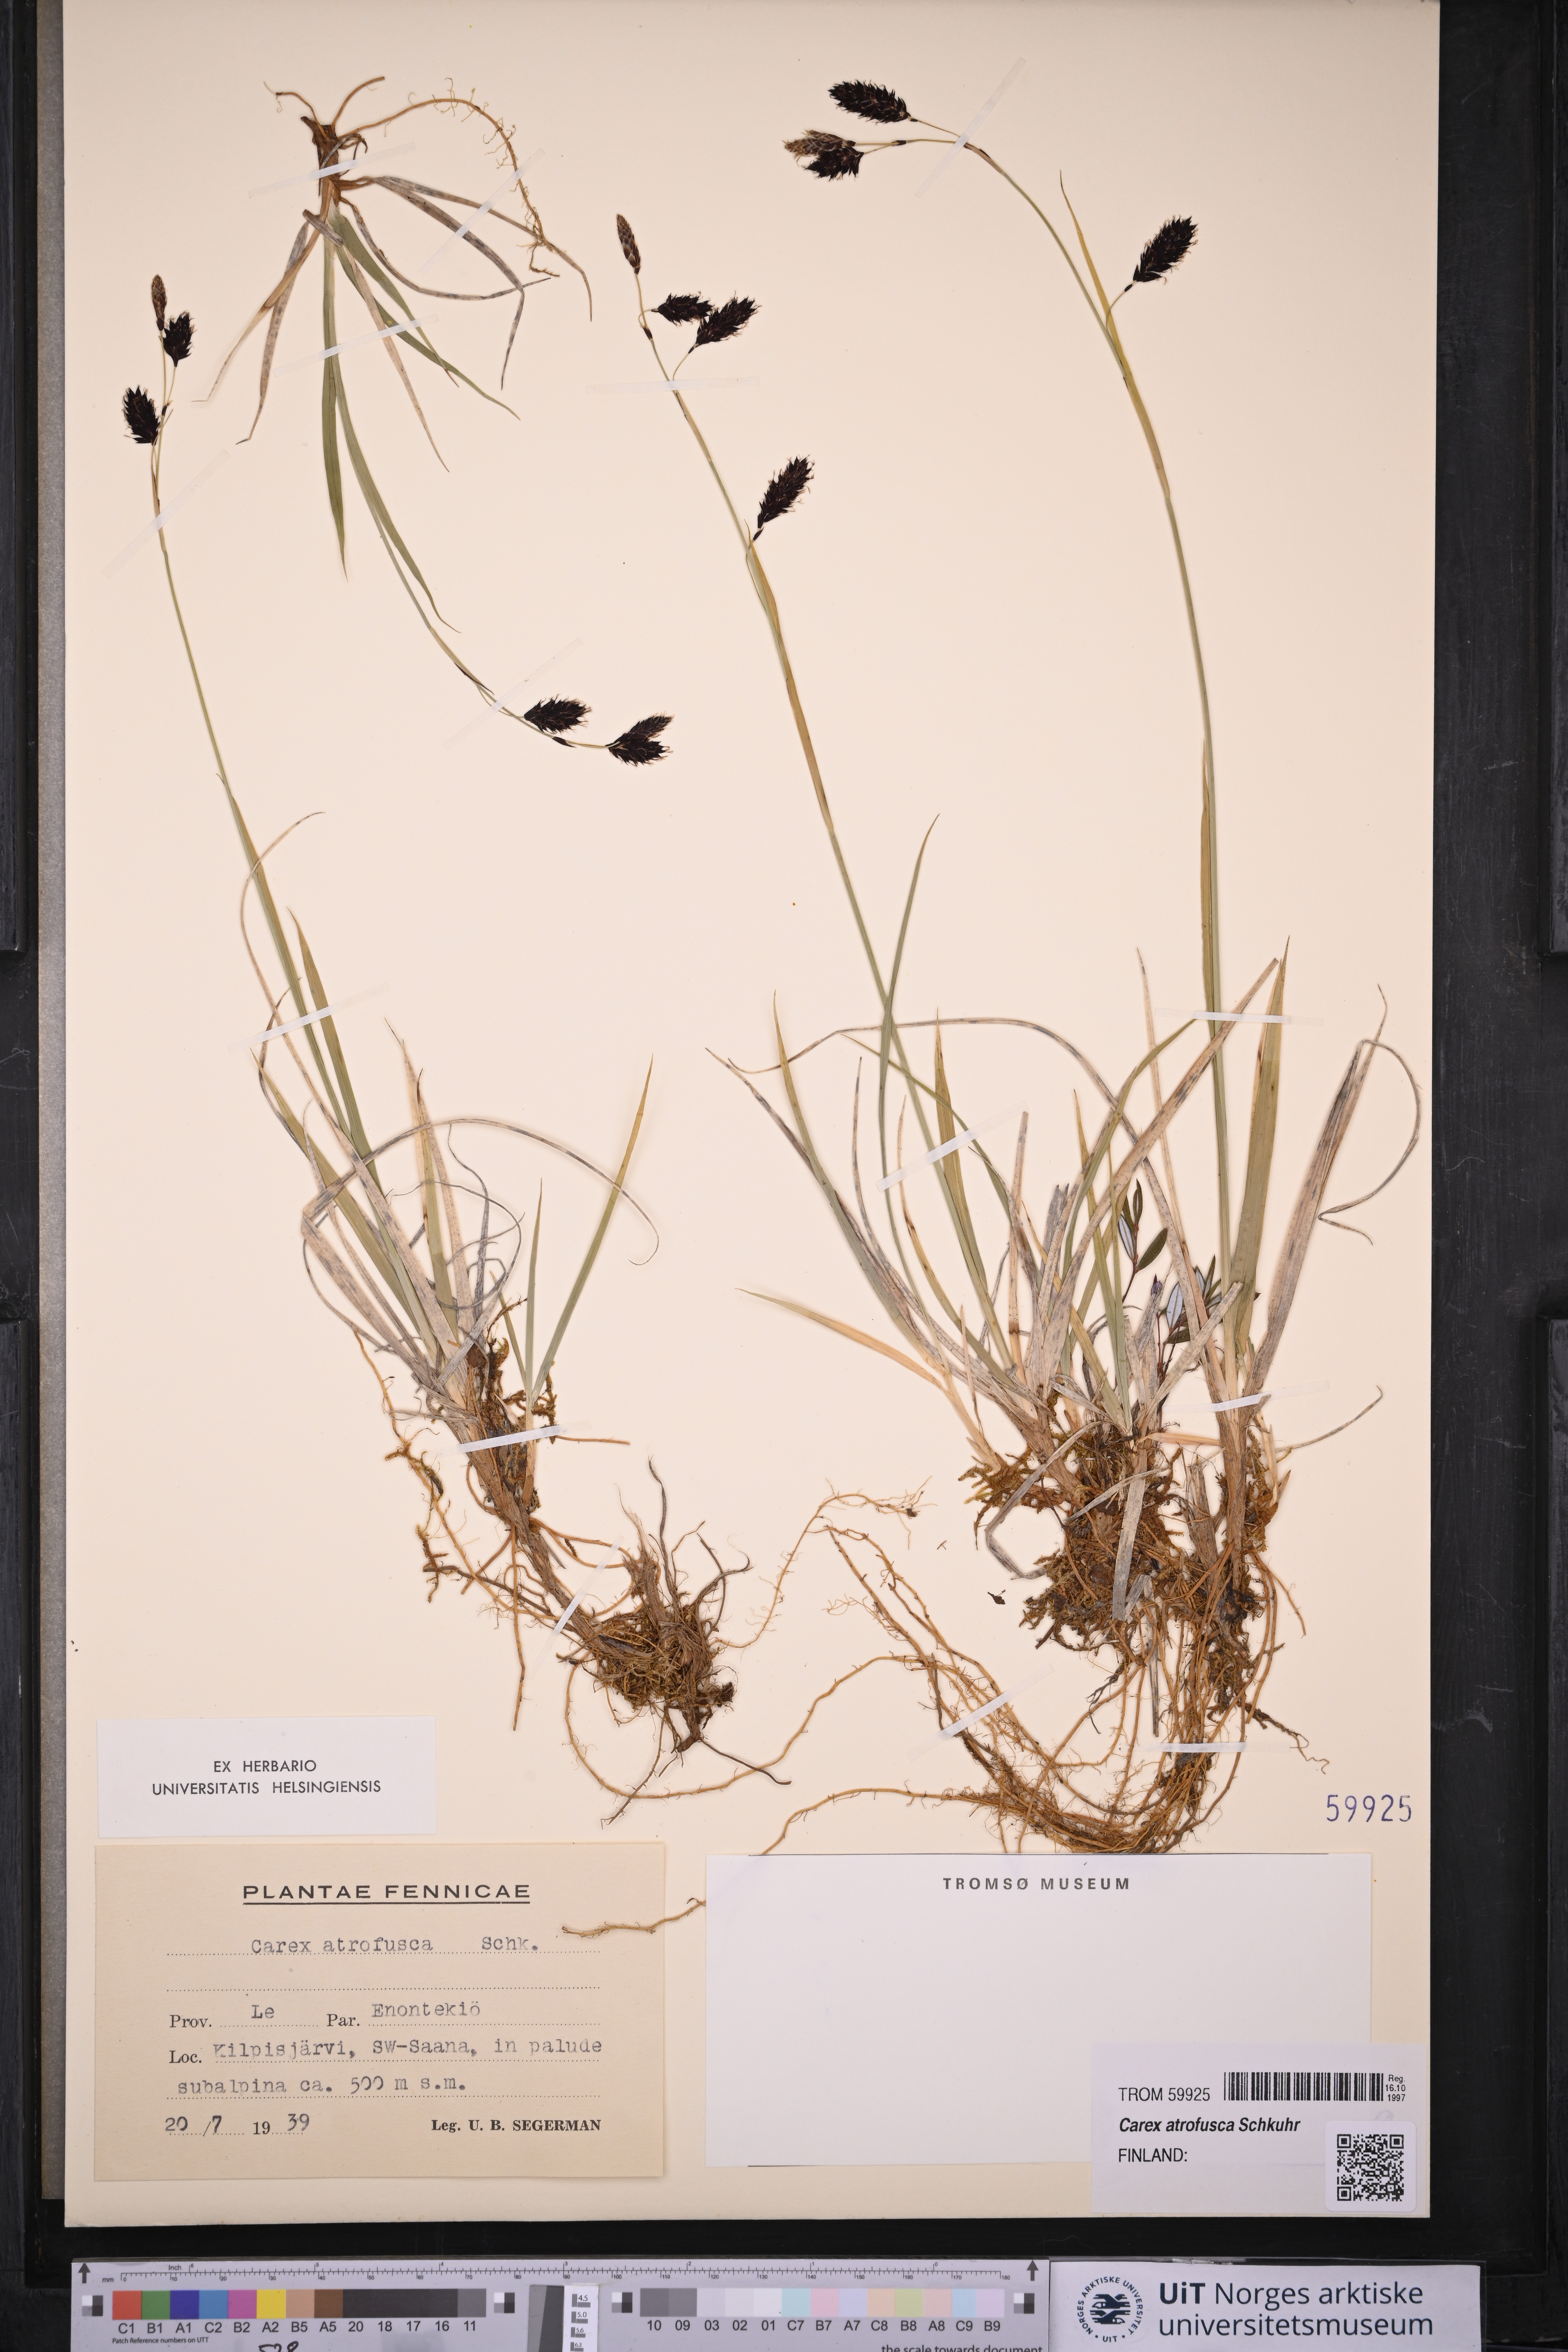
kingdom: Plantae
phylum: Tracheophyta
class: Liliopsida
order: Poales
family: Cyperaceae
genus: Carex
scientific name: Carex atrofusca
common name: Scorched alpine-sedge
